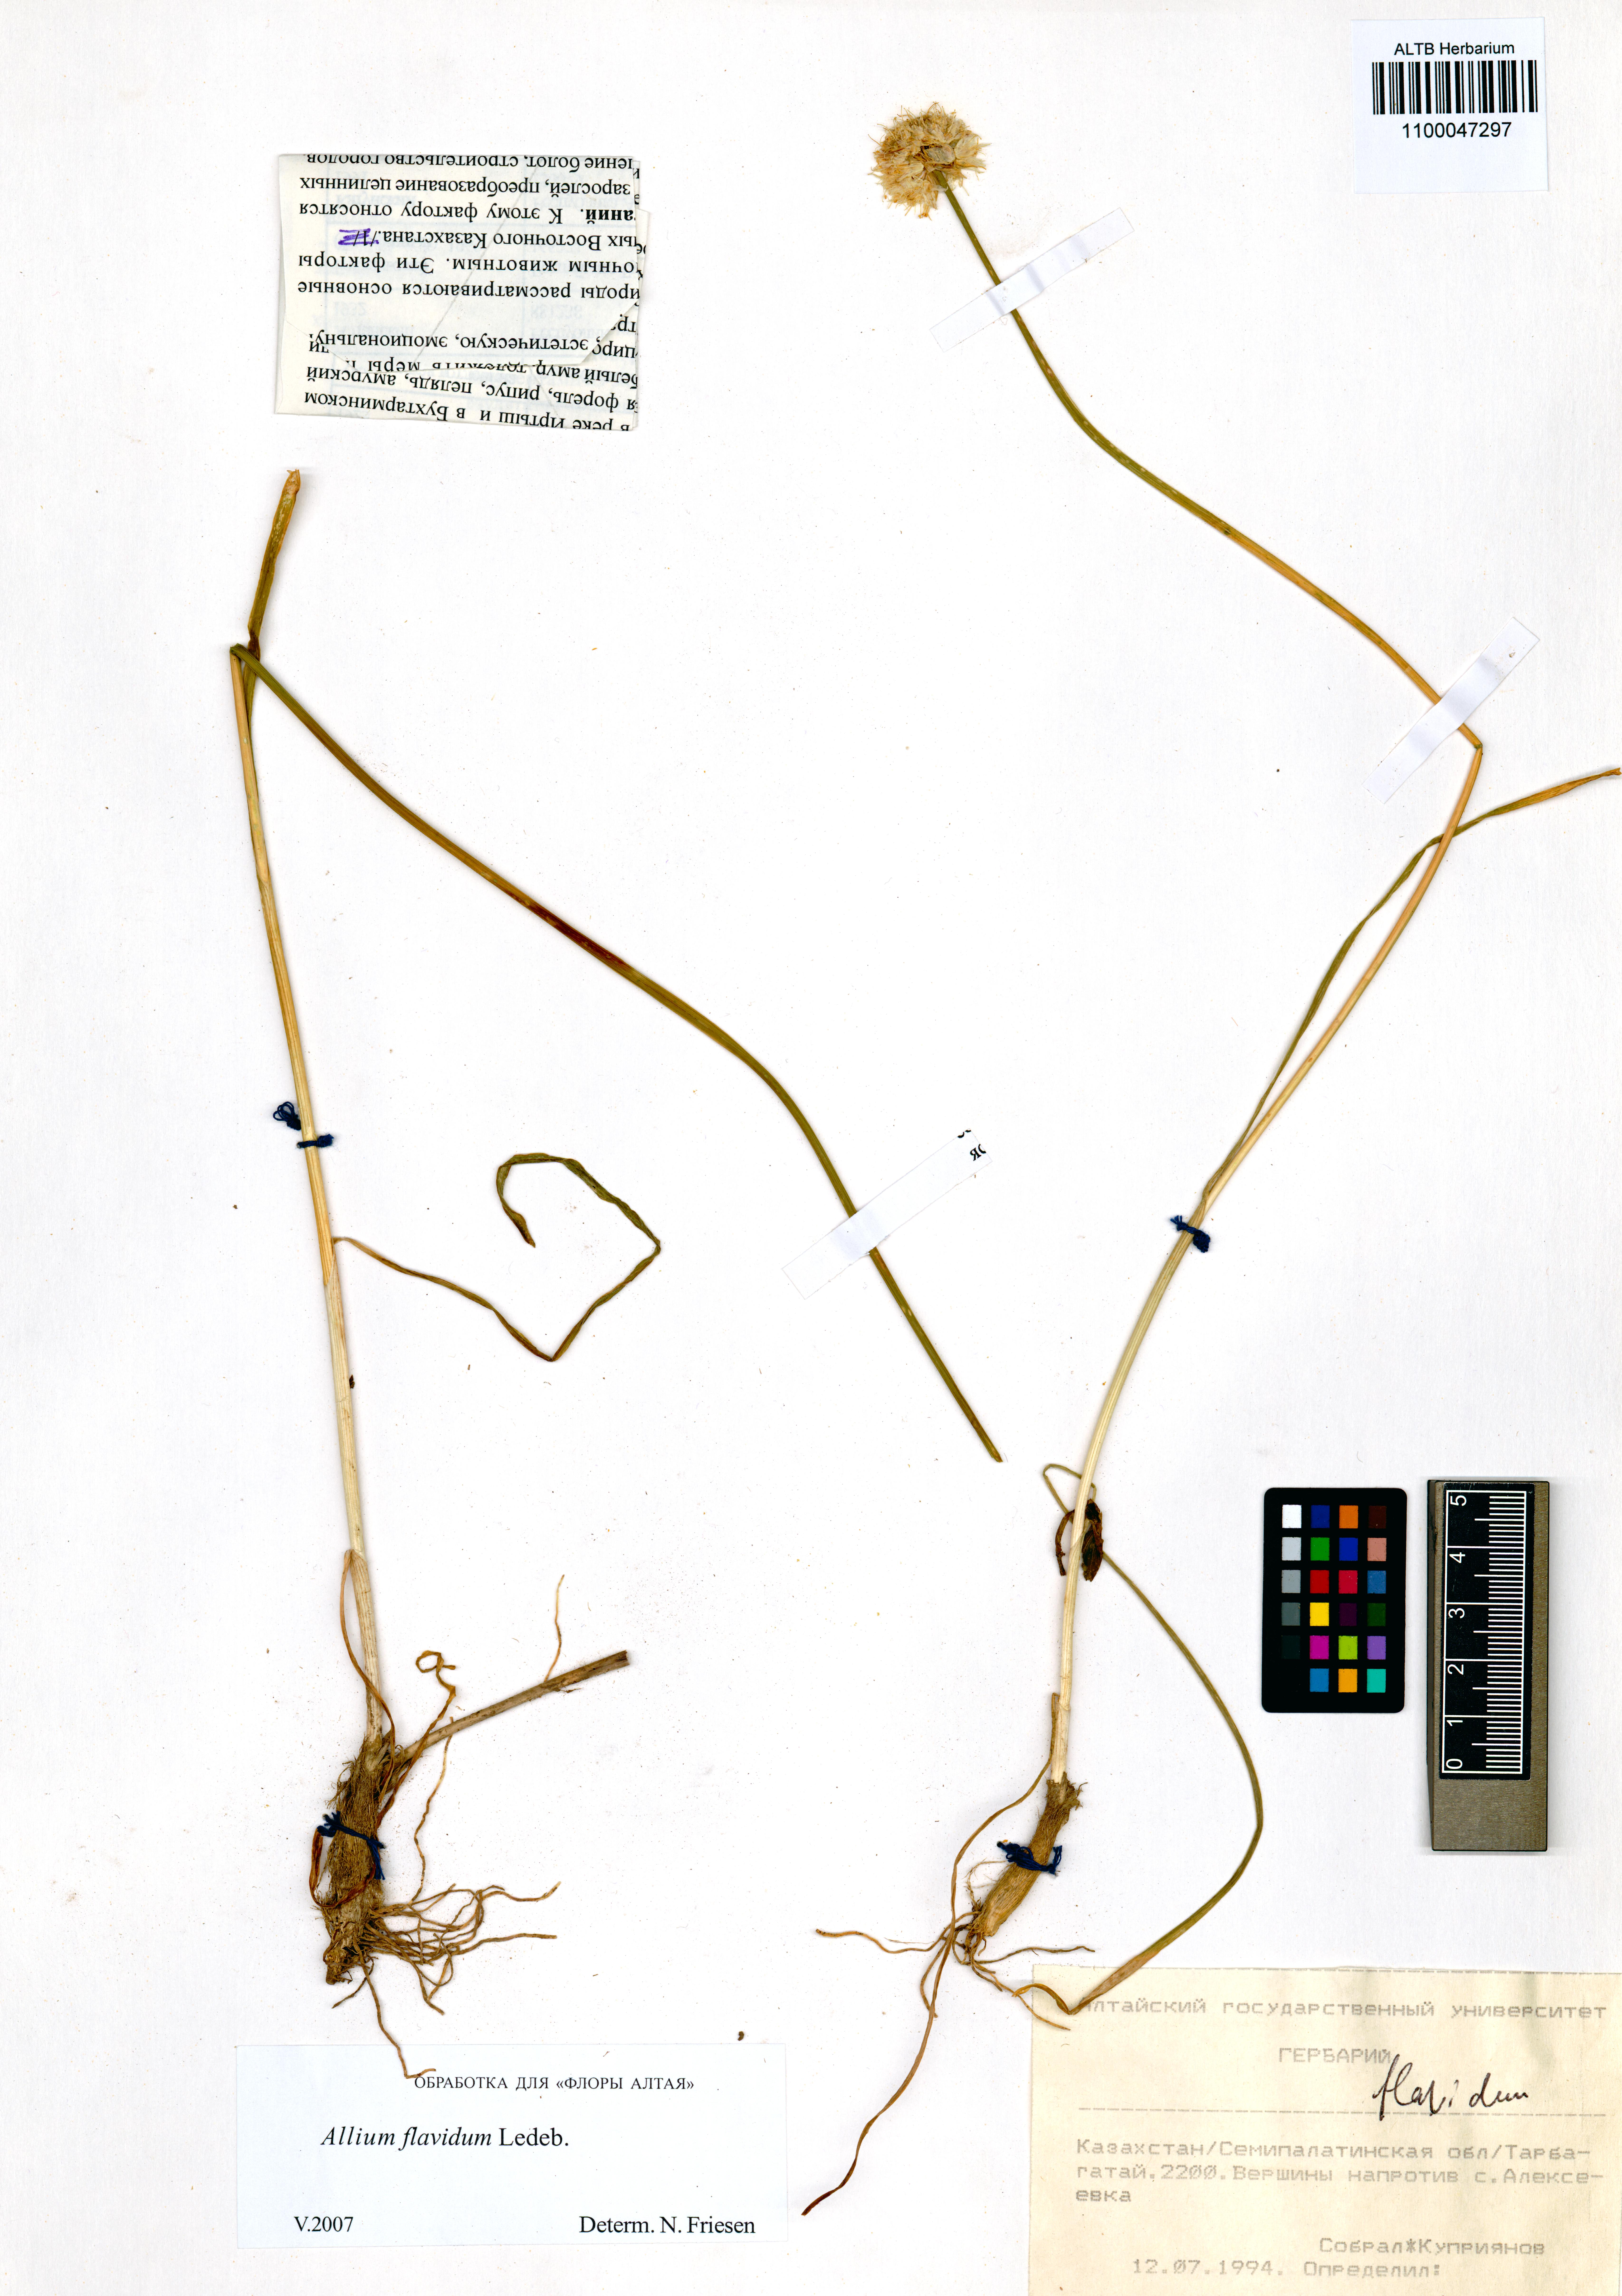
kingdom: Plantae
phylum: Tracheophyta
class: Liliopsida
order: Asparagales
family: Amaryllidaceae
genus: Allium
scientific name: Allium flavidum
